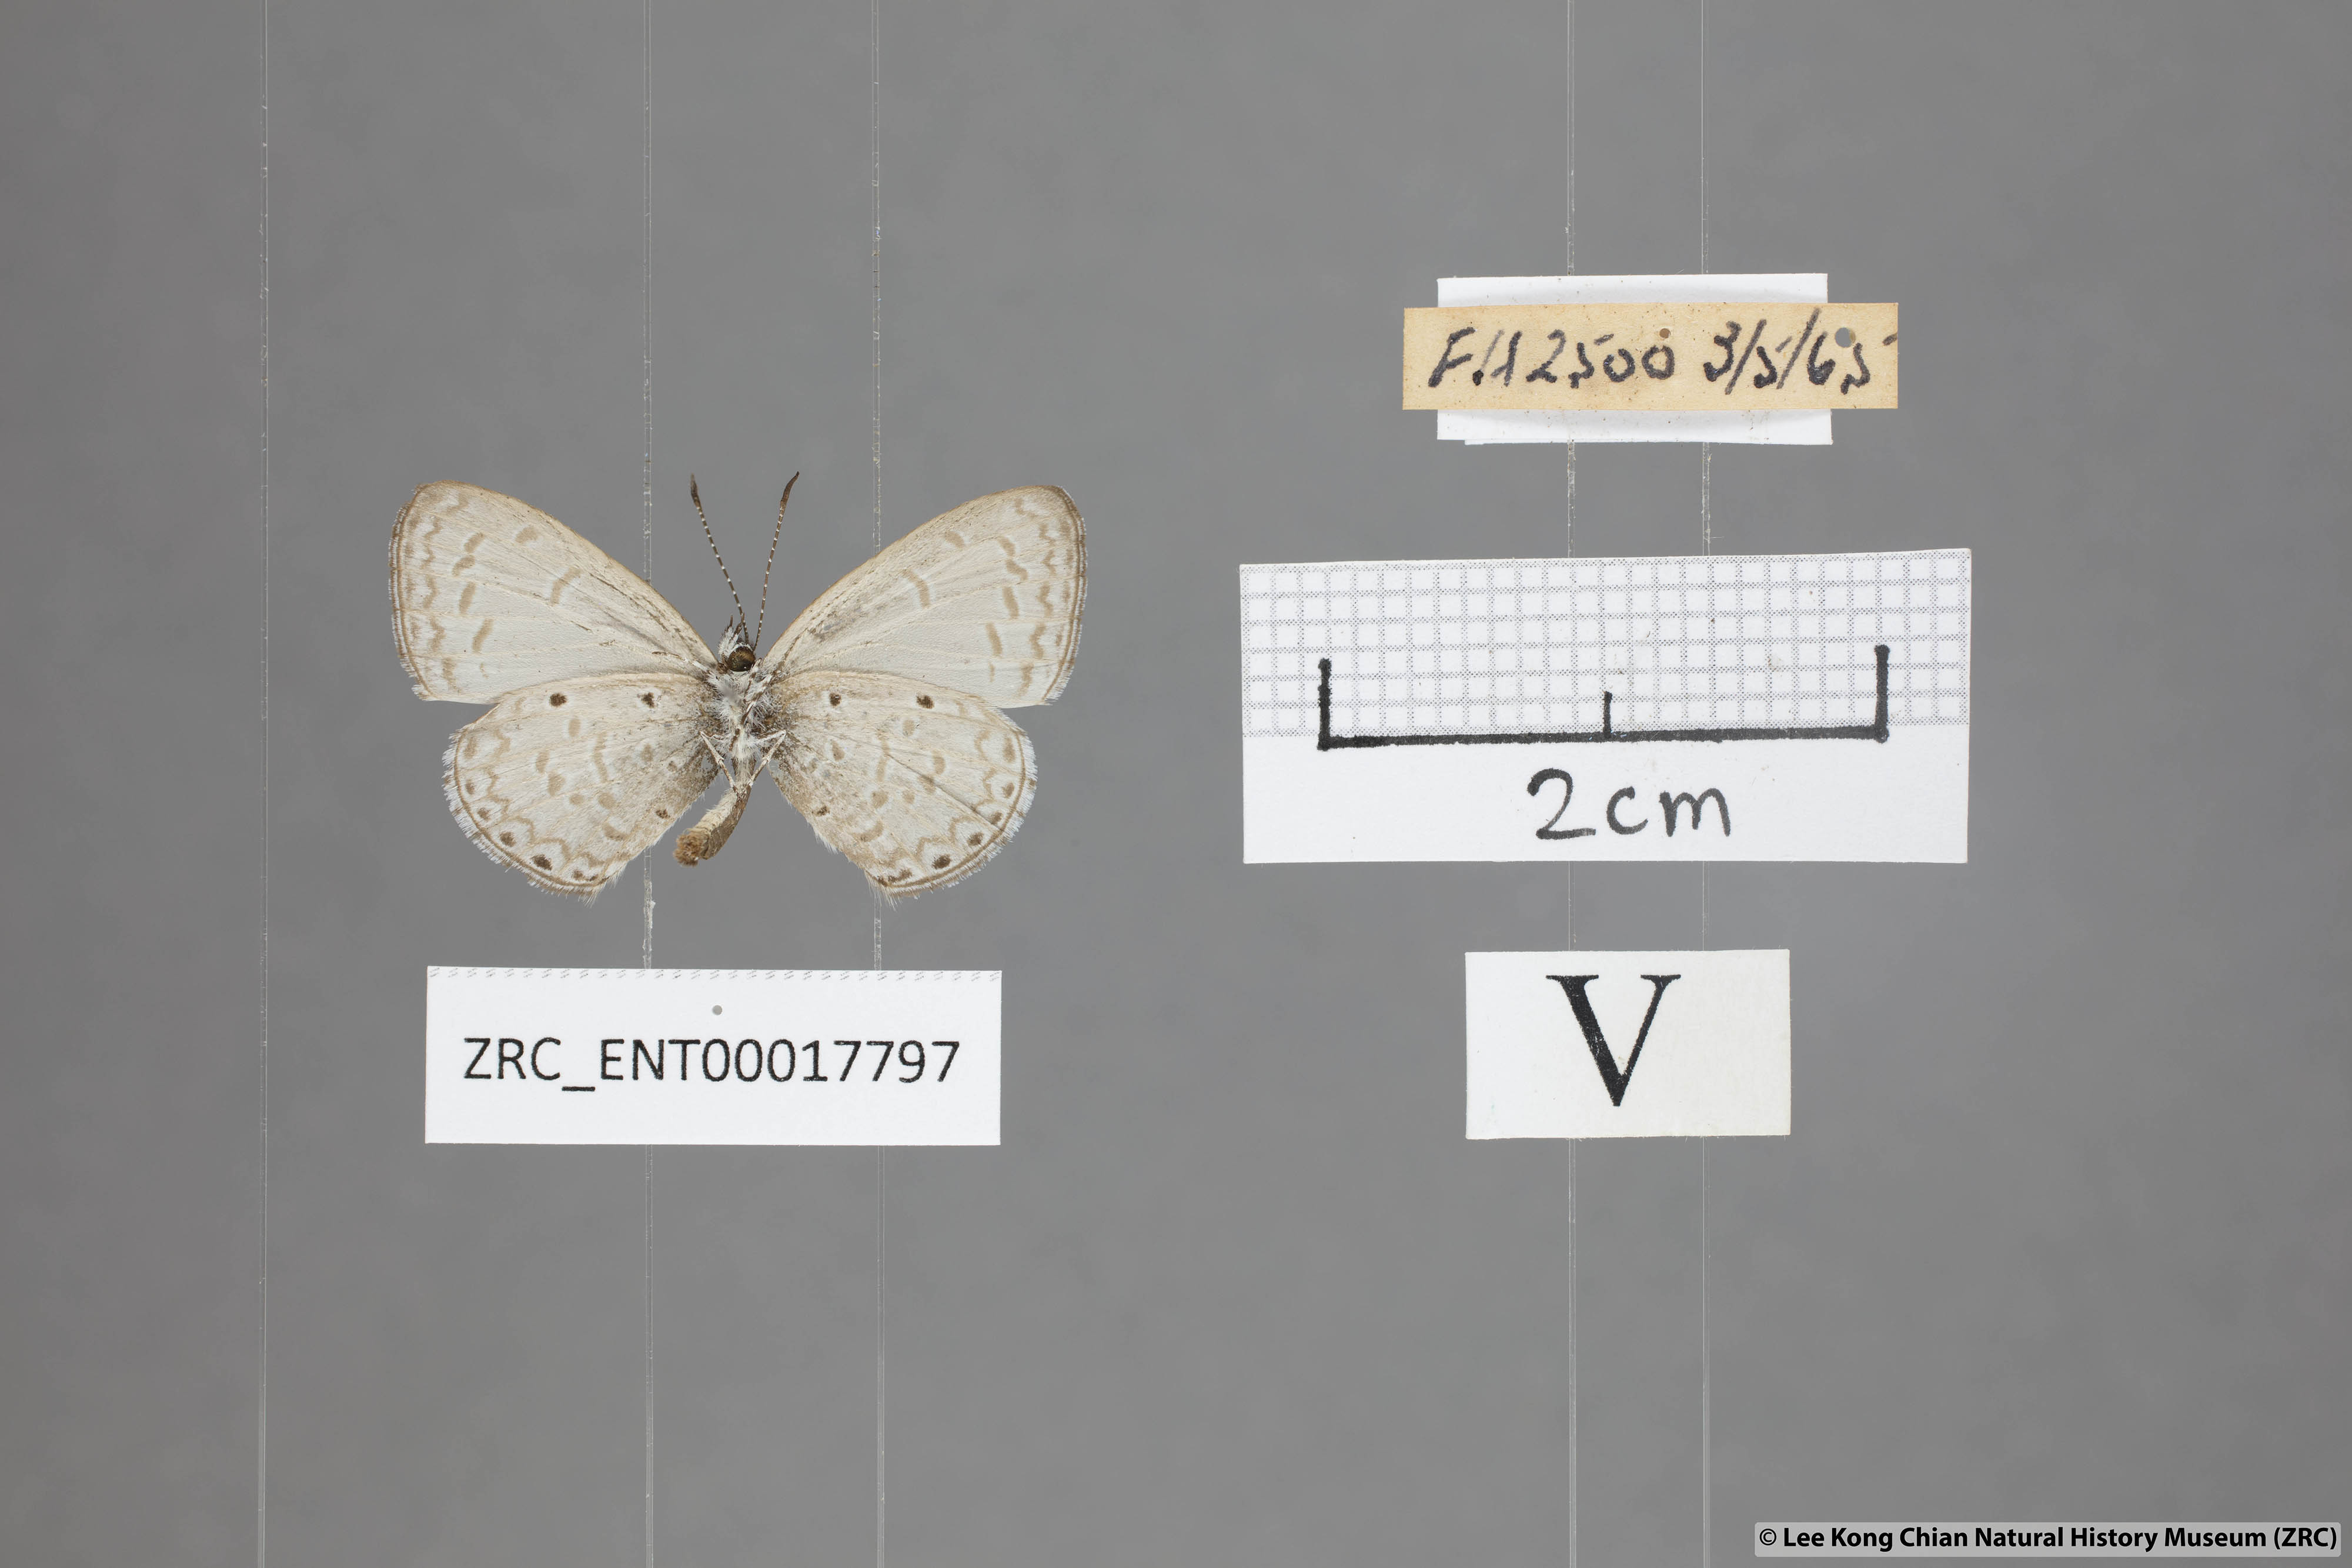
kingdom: Animalia
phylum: Arthropoda
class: Insecta
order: Lepidoptera
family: Lycaenidae
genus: Monodontides
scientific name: Monodontides
